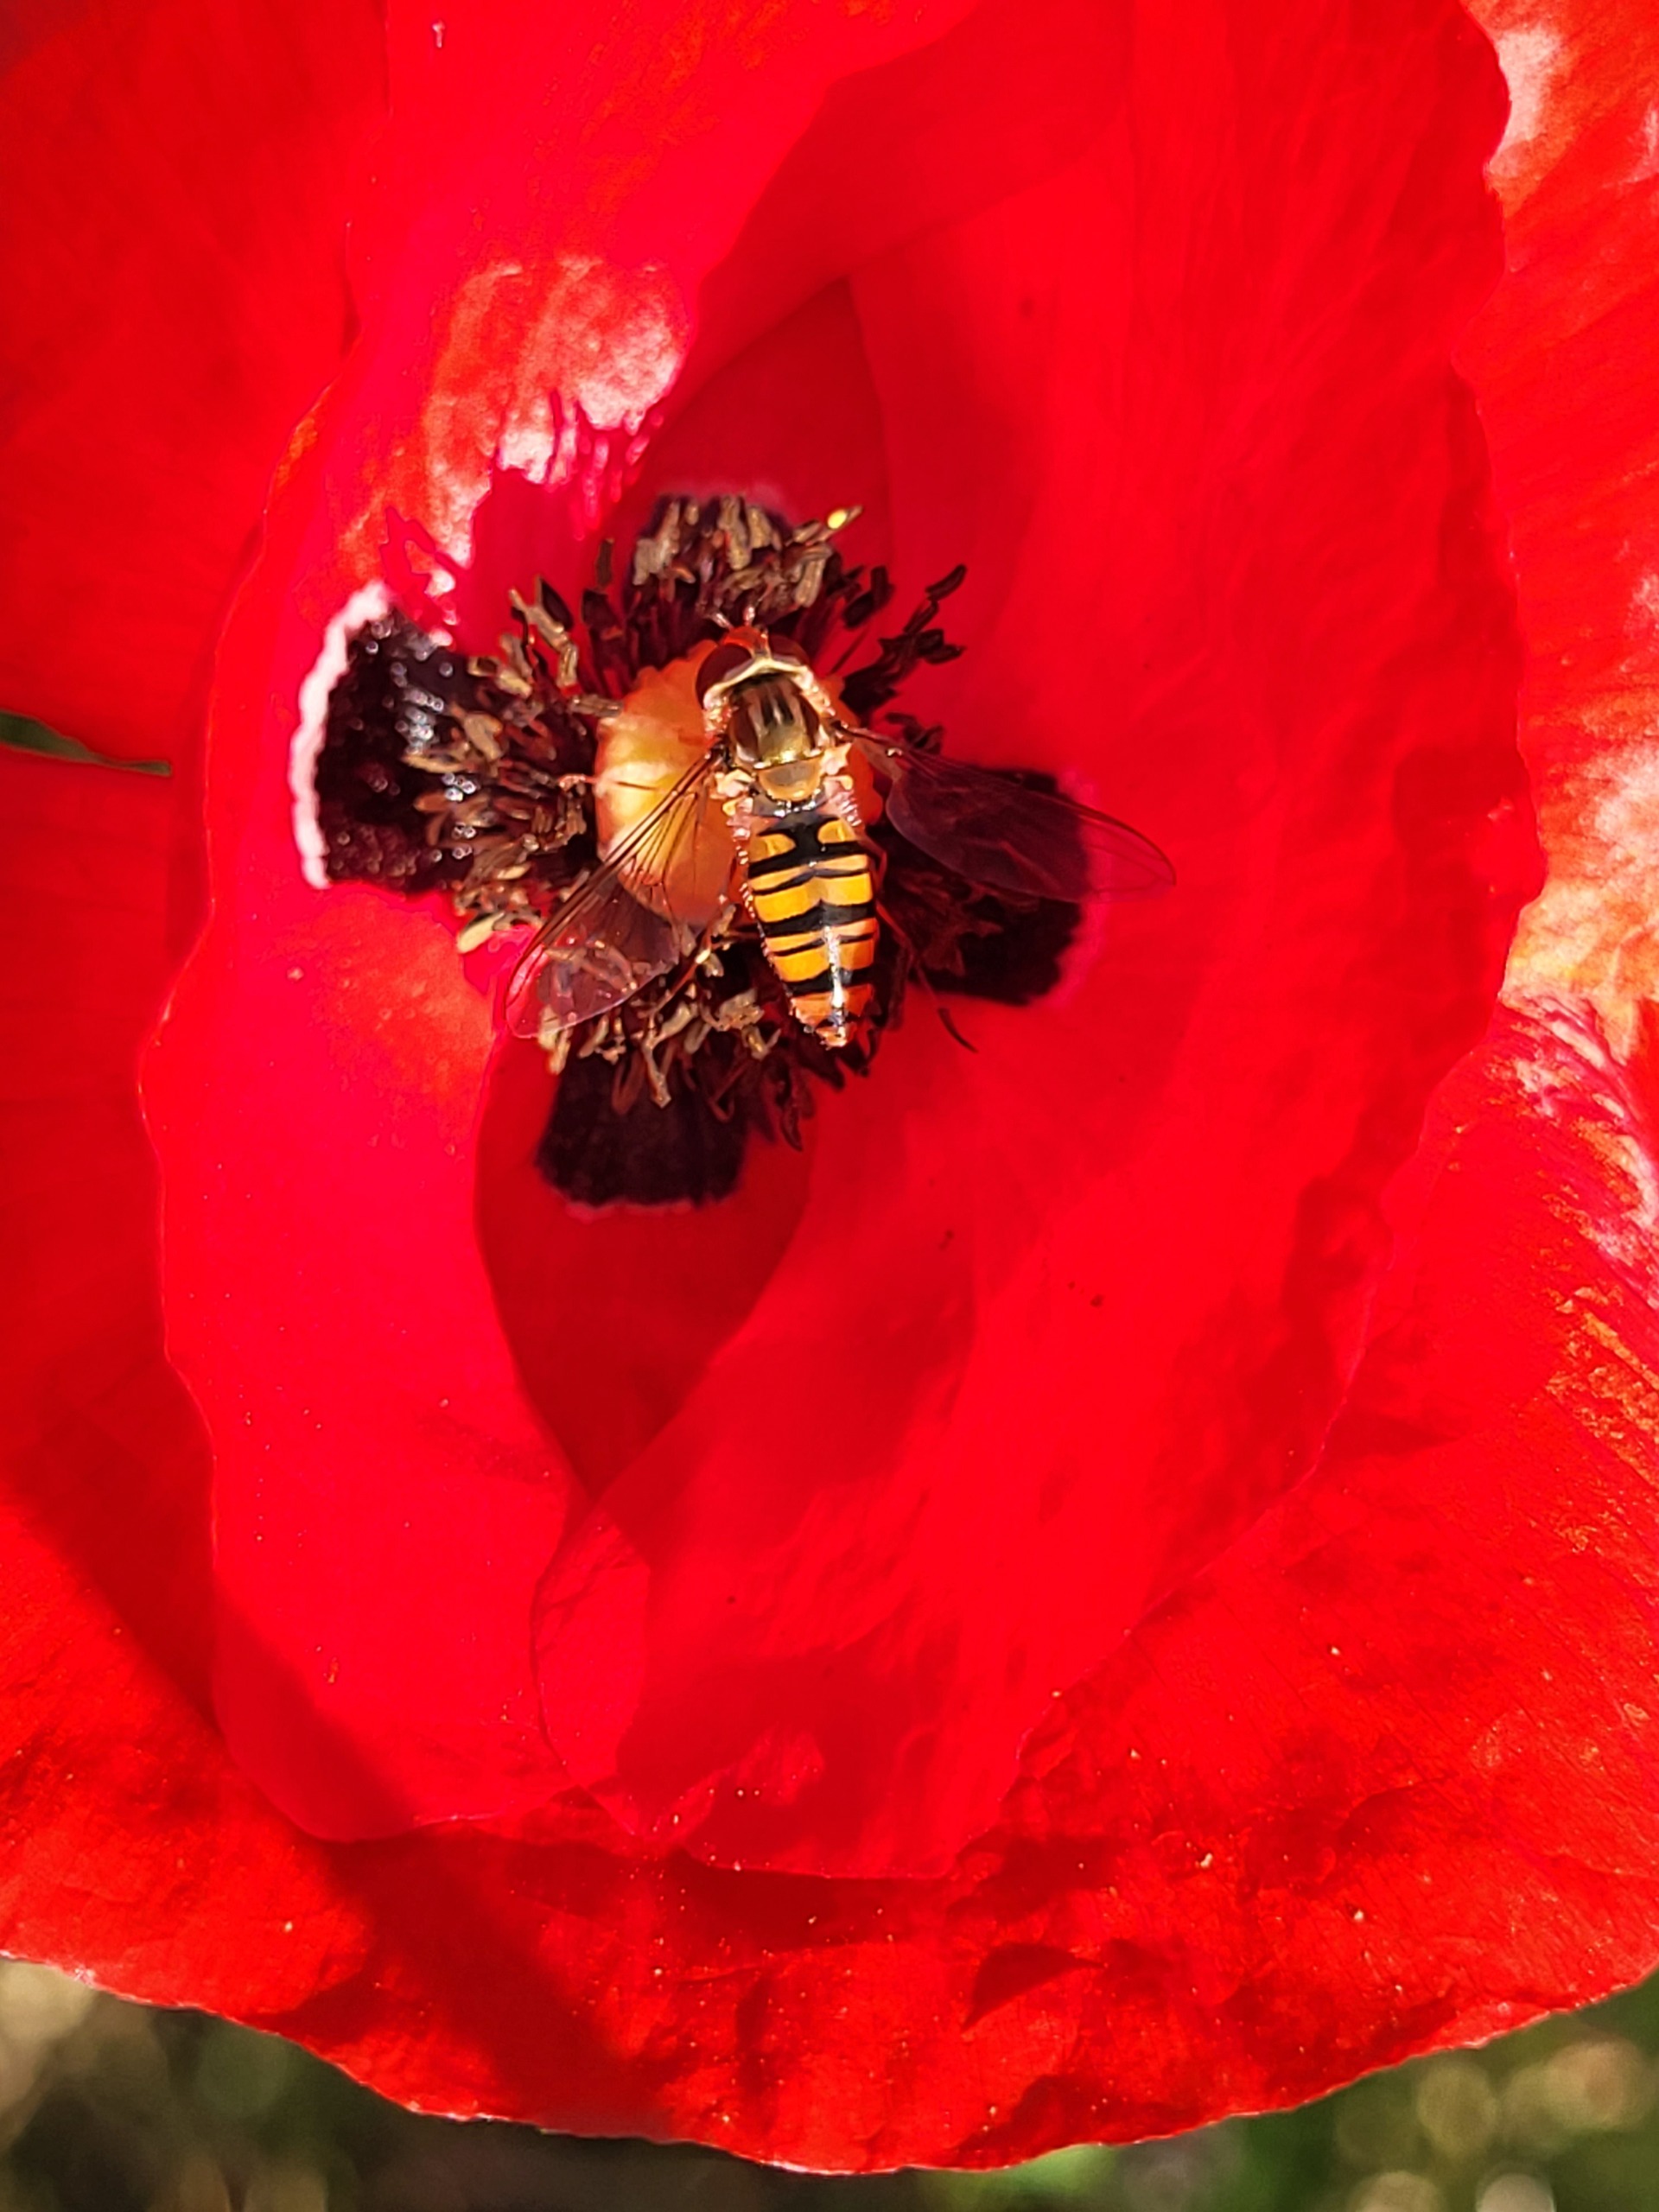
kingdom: Animalia
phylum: Arthropoda
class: Insecta
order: Diptera
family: Syrphidae
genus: Episyrphus
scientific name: Episyrphus balteatus
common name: Dobbeltbåndet svirreflue
